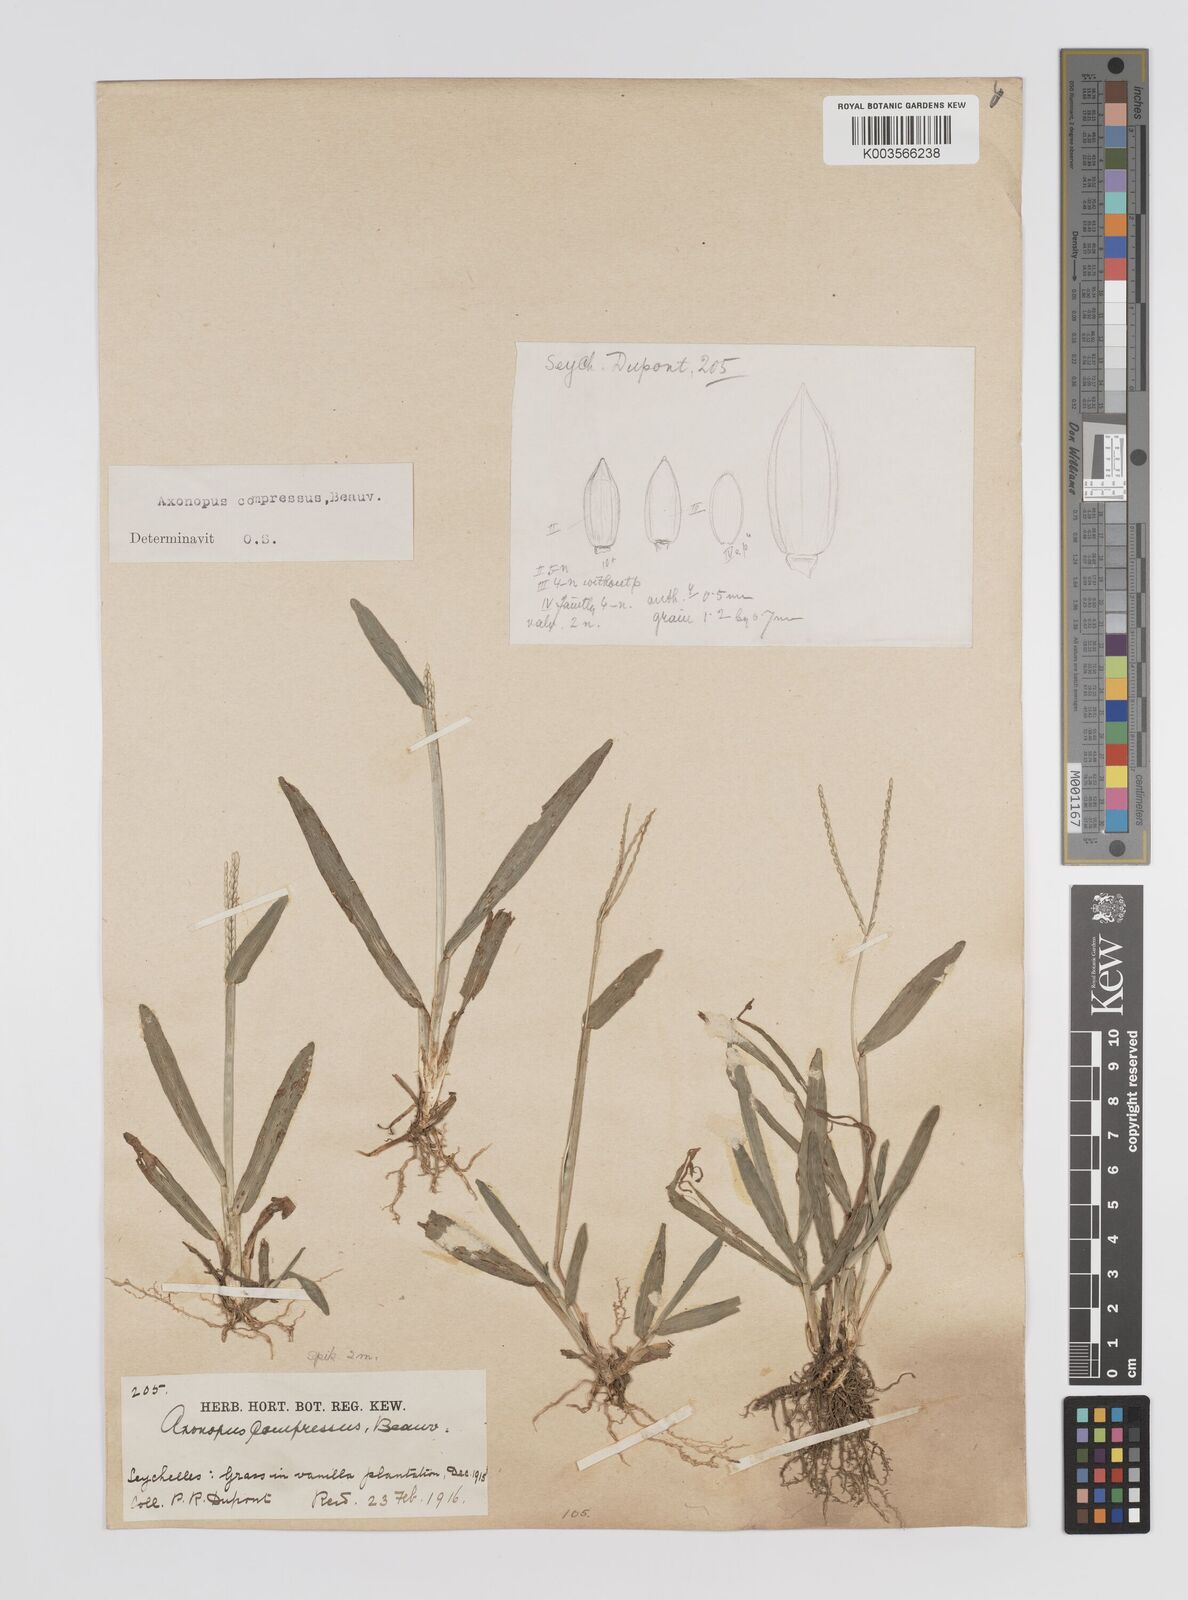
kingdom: Plantae
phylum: Tracheophyta
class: Liliopsida
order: Poales
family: Poaceae
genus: Axonopus
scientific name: Axonopus compressus
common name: American carpet grass
